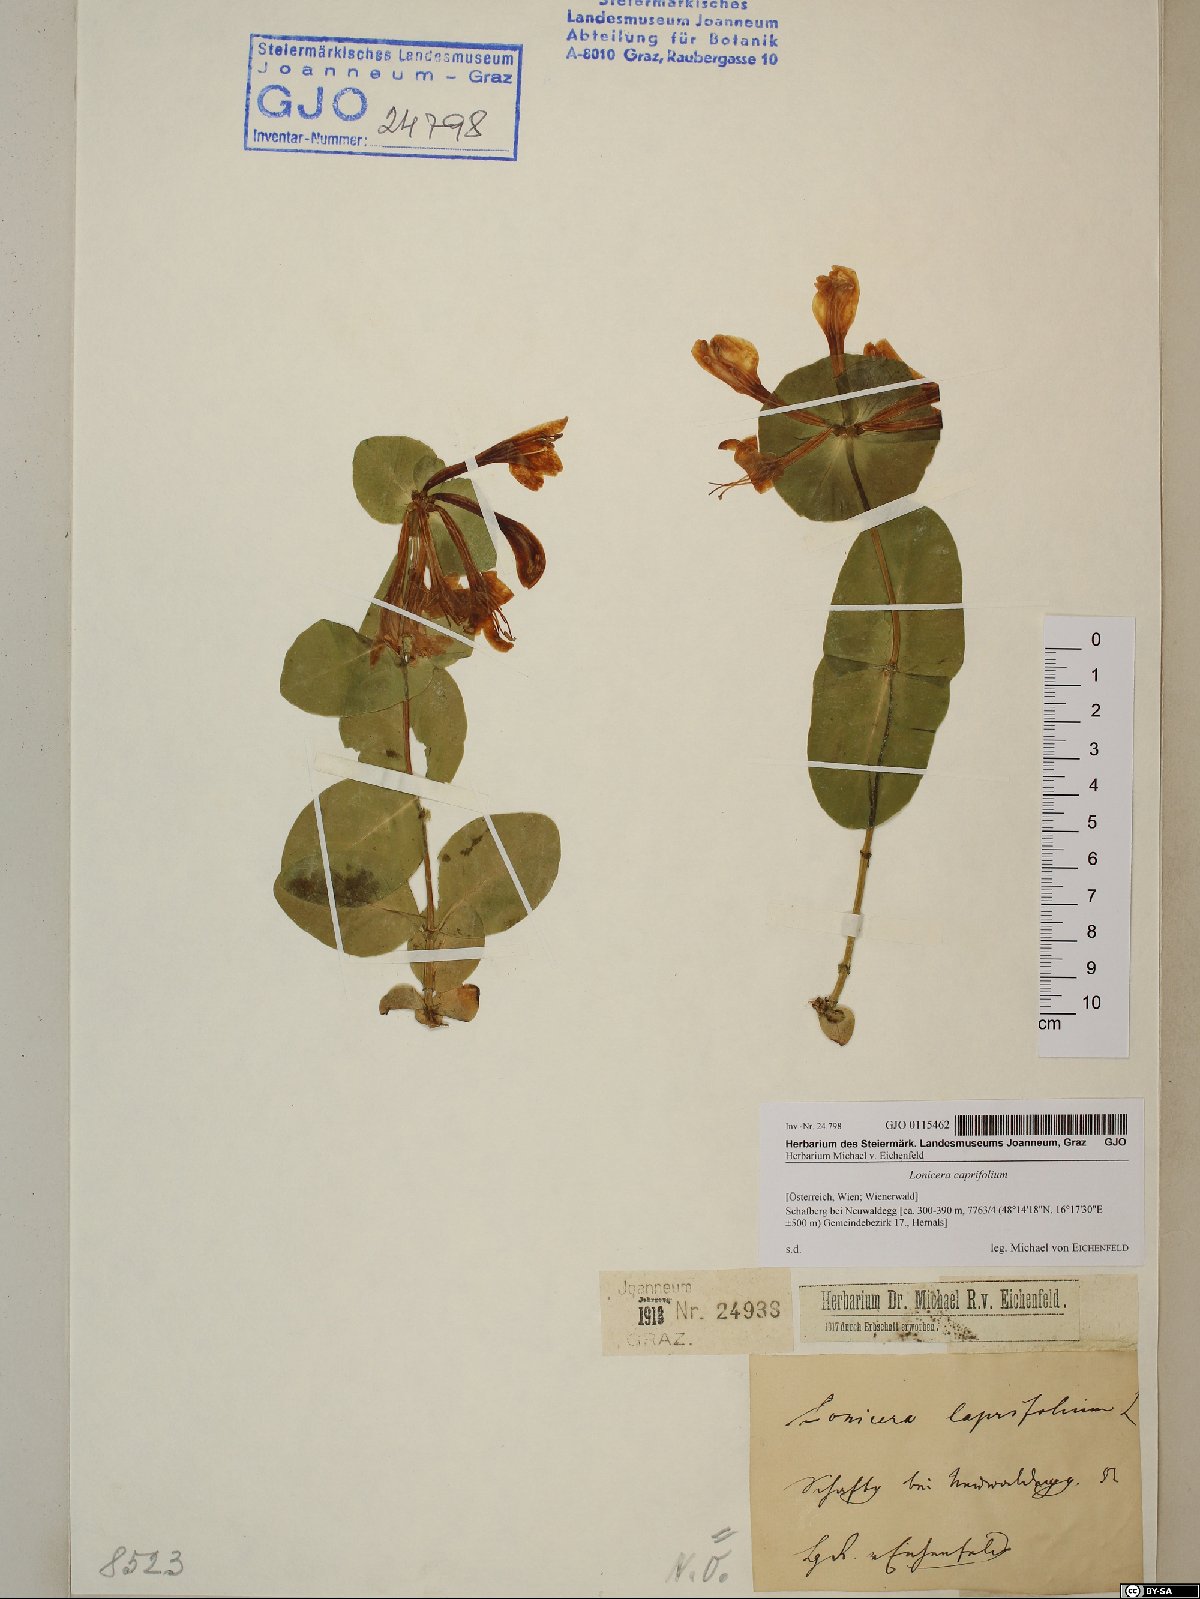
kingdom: Plantae
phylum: Tracheophyta
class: Magnoliopsida
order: Dipsacales
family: Caprifoliaceae
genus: Lonicera
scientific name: Lonicera caprifolium
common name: Perfoliate honeysuckle
